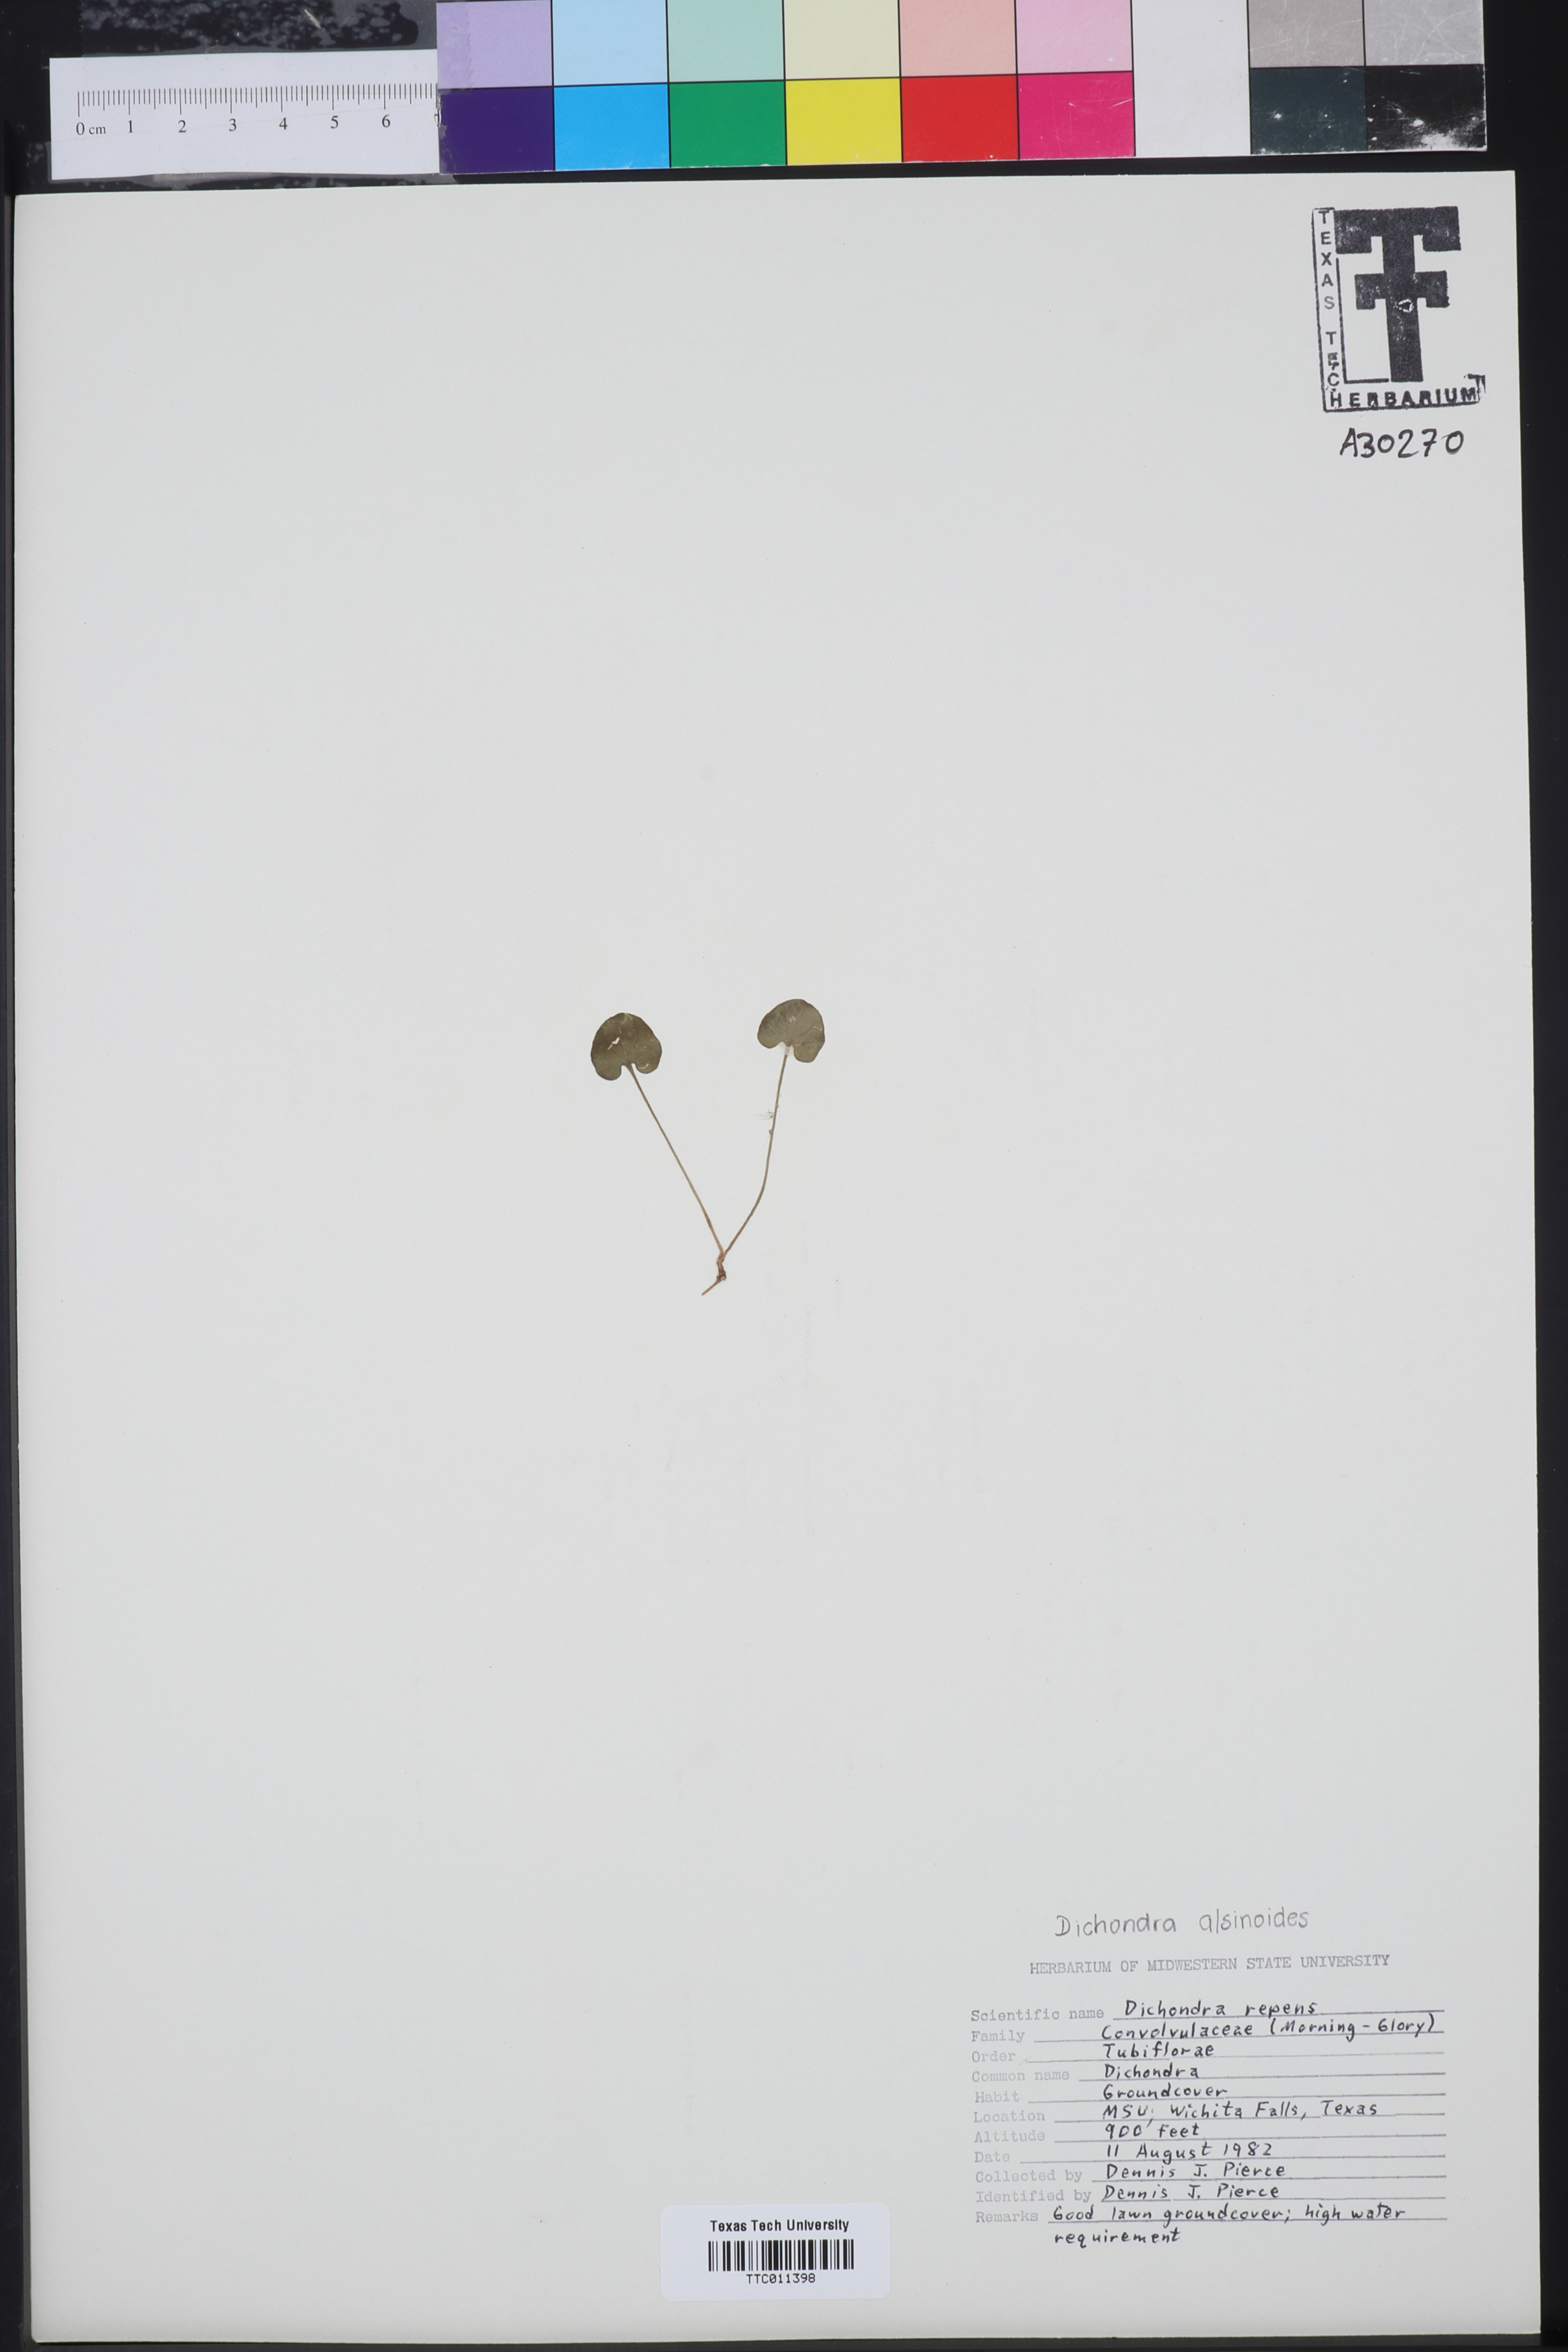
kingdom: Plantae
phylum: Tracheophyta
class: Magnoliopsida
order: Solanales
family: Convolvulaceae
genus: Dichondra
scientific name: Dichondra repens
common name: Kidneyweed
